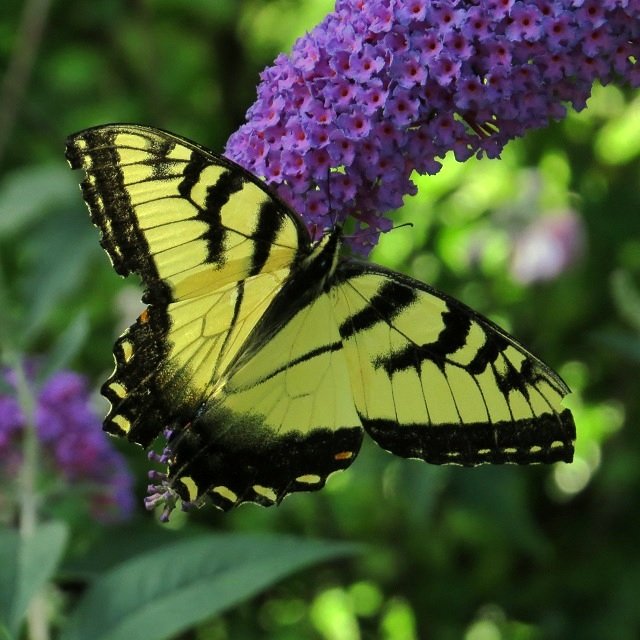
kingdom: Animalia
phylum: Arthropoda
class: Insecta
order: Lepidoptera
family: Papilionidae
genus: Pterourus
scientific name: Pterourus glaucus
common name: Eastern Tiger Swallowtail
